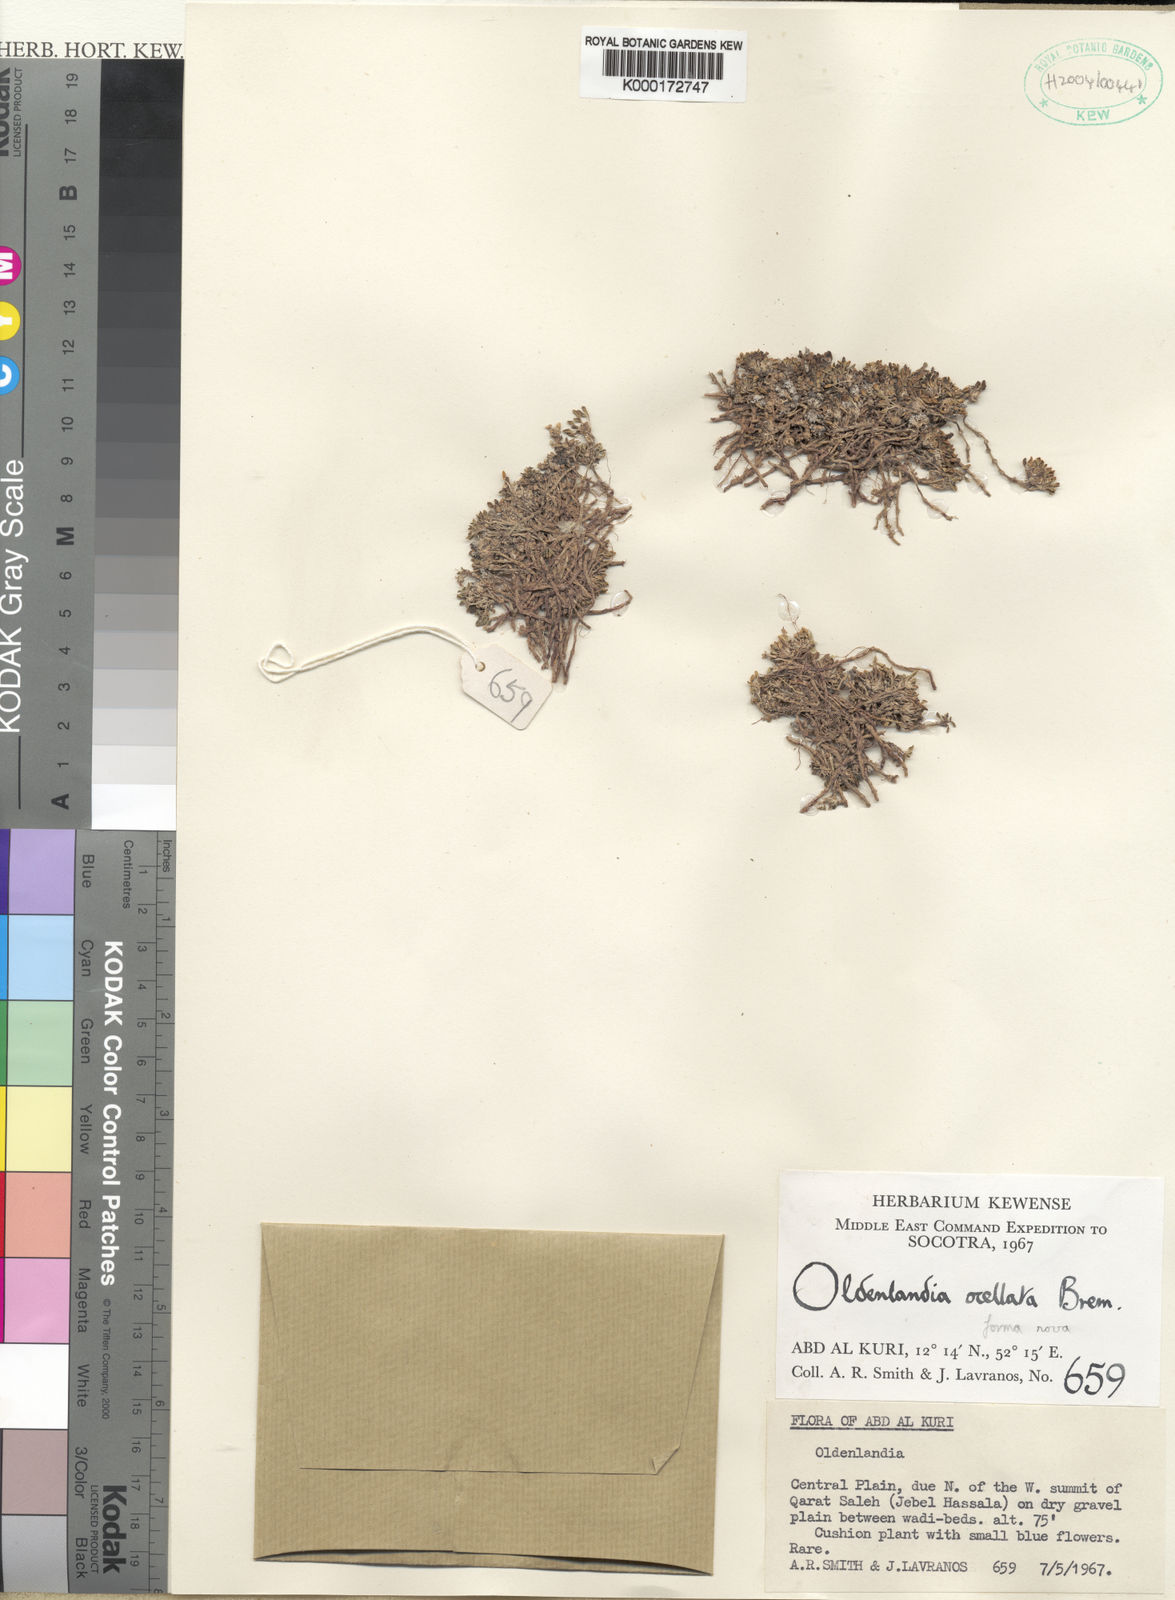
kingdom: Plantae
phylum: Tracheophyta
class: Magnoliopsida
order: Gentianales
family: Rubiaceae
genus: Oldenlandia
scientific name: Oldenlandia ocellata
